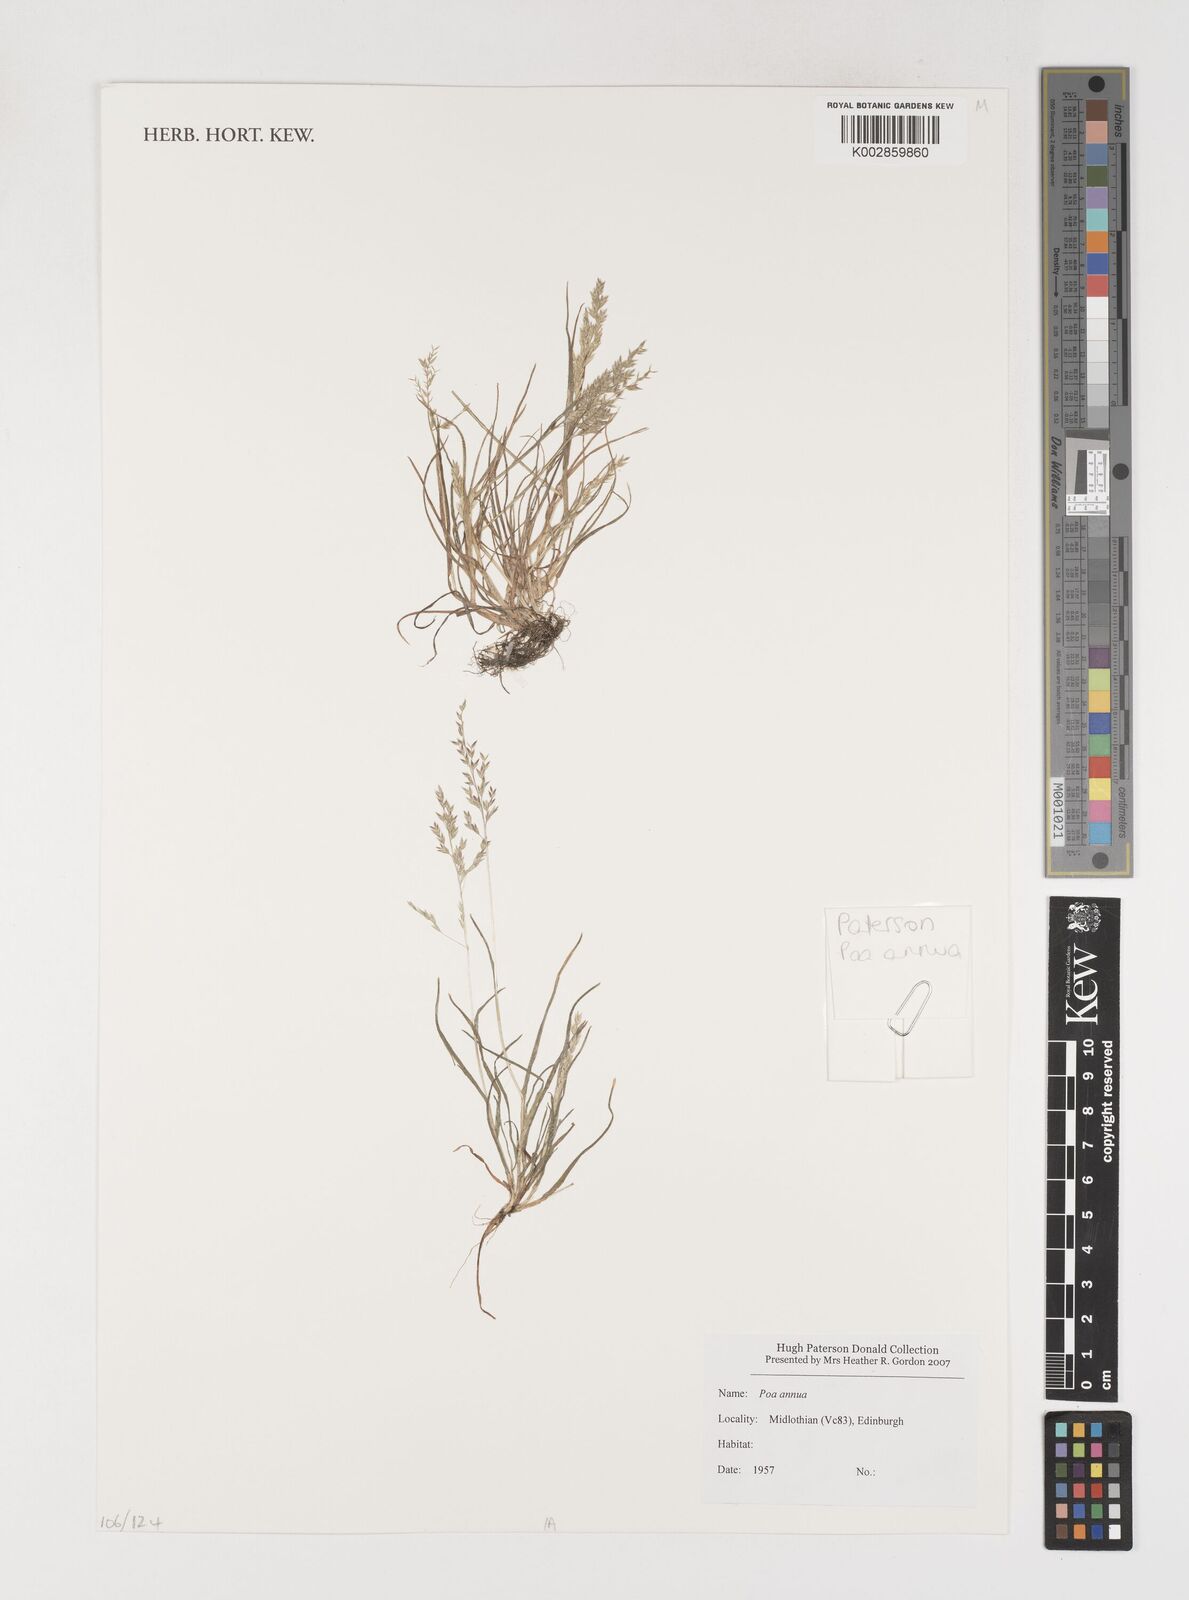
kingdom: Plantae
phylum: Tracheophyta
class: Liliopsida
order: Poales
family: Poaceae
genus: Poa
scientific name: Poa
